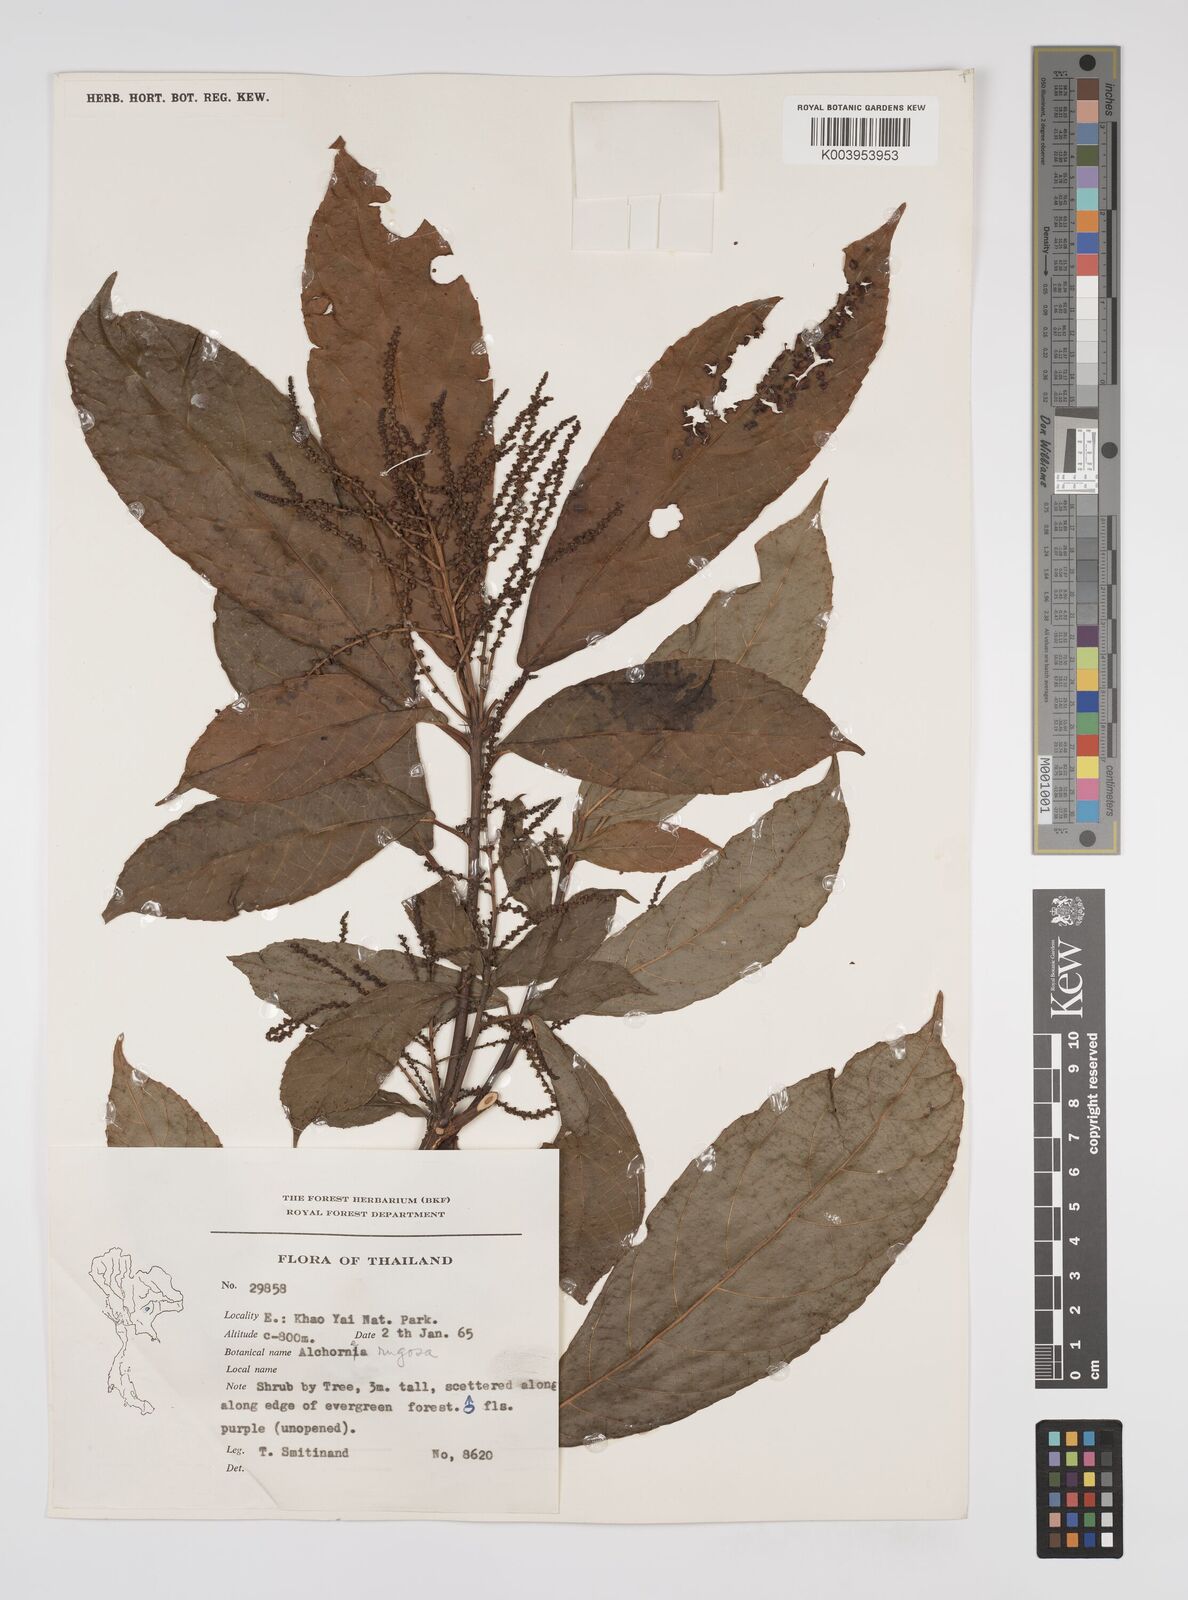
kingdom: Plantae
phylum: Tracheophyta
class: Magnoliopsida
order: Malpighiales
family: Euphorbiaceae
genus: Alchornea
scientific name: Alchornea rugosa
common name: Alchorntree
